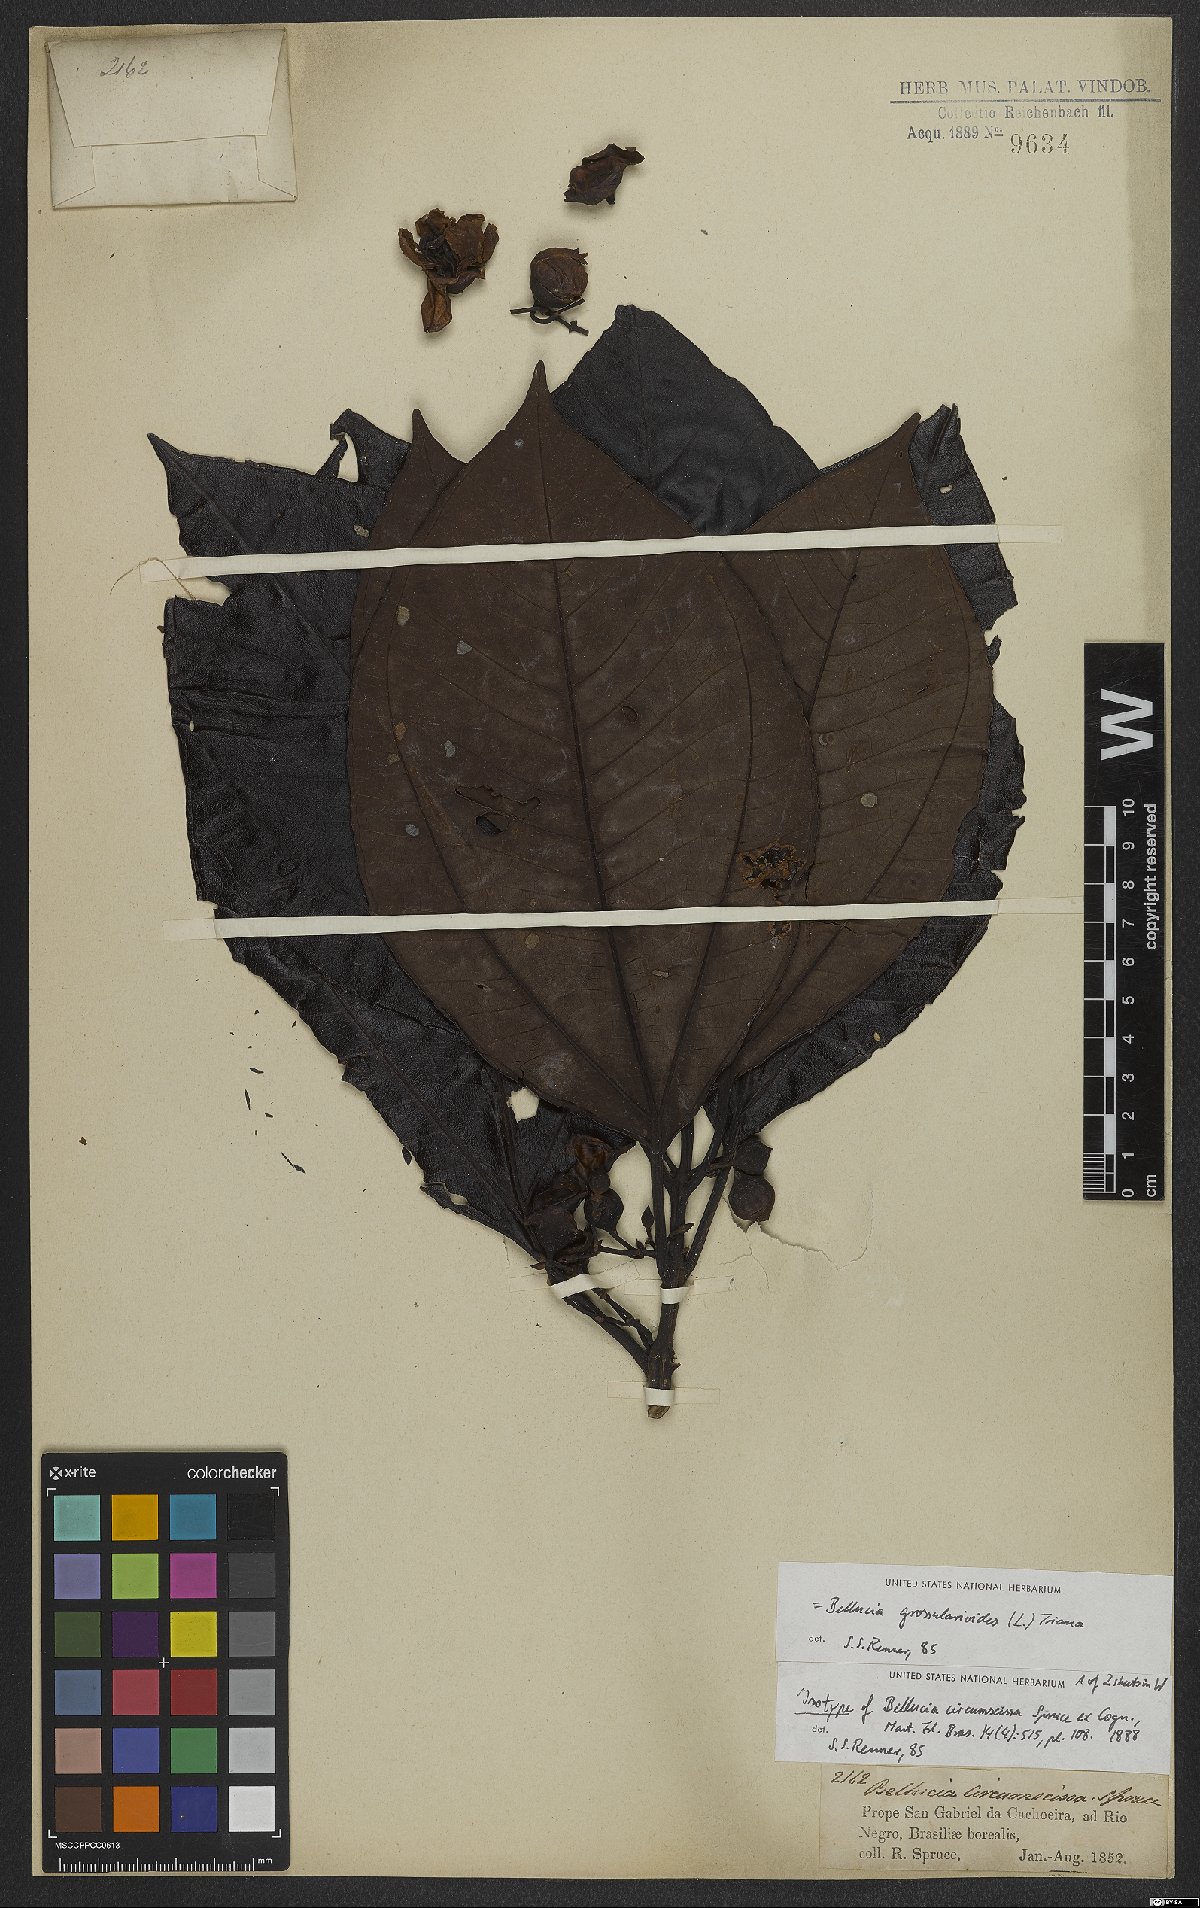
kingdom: Plantae
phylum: Tracheophyta
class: Magnoliopsida
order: Myrtales
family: Melastomataceae
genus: Bellucia
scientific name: Bellucia grossularioides
